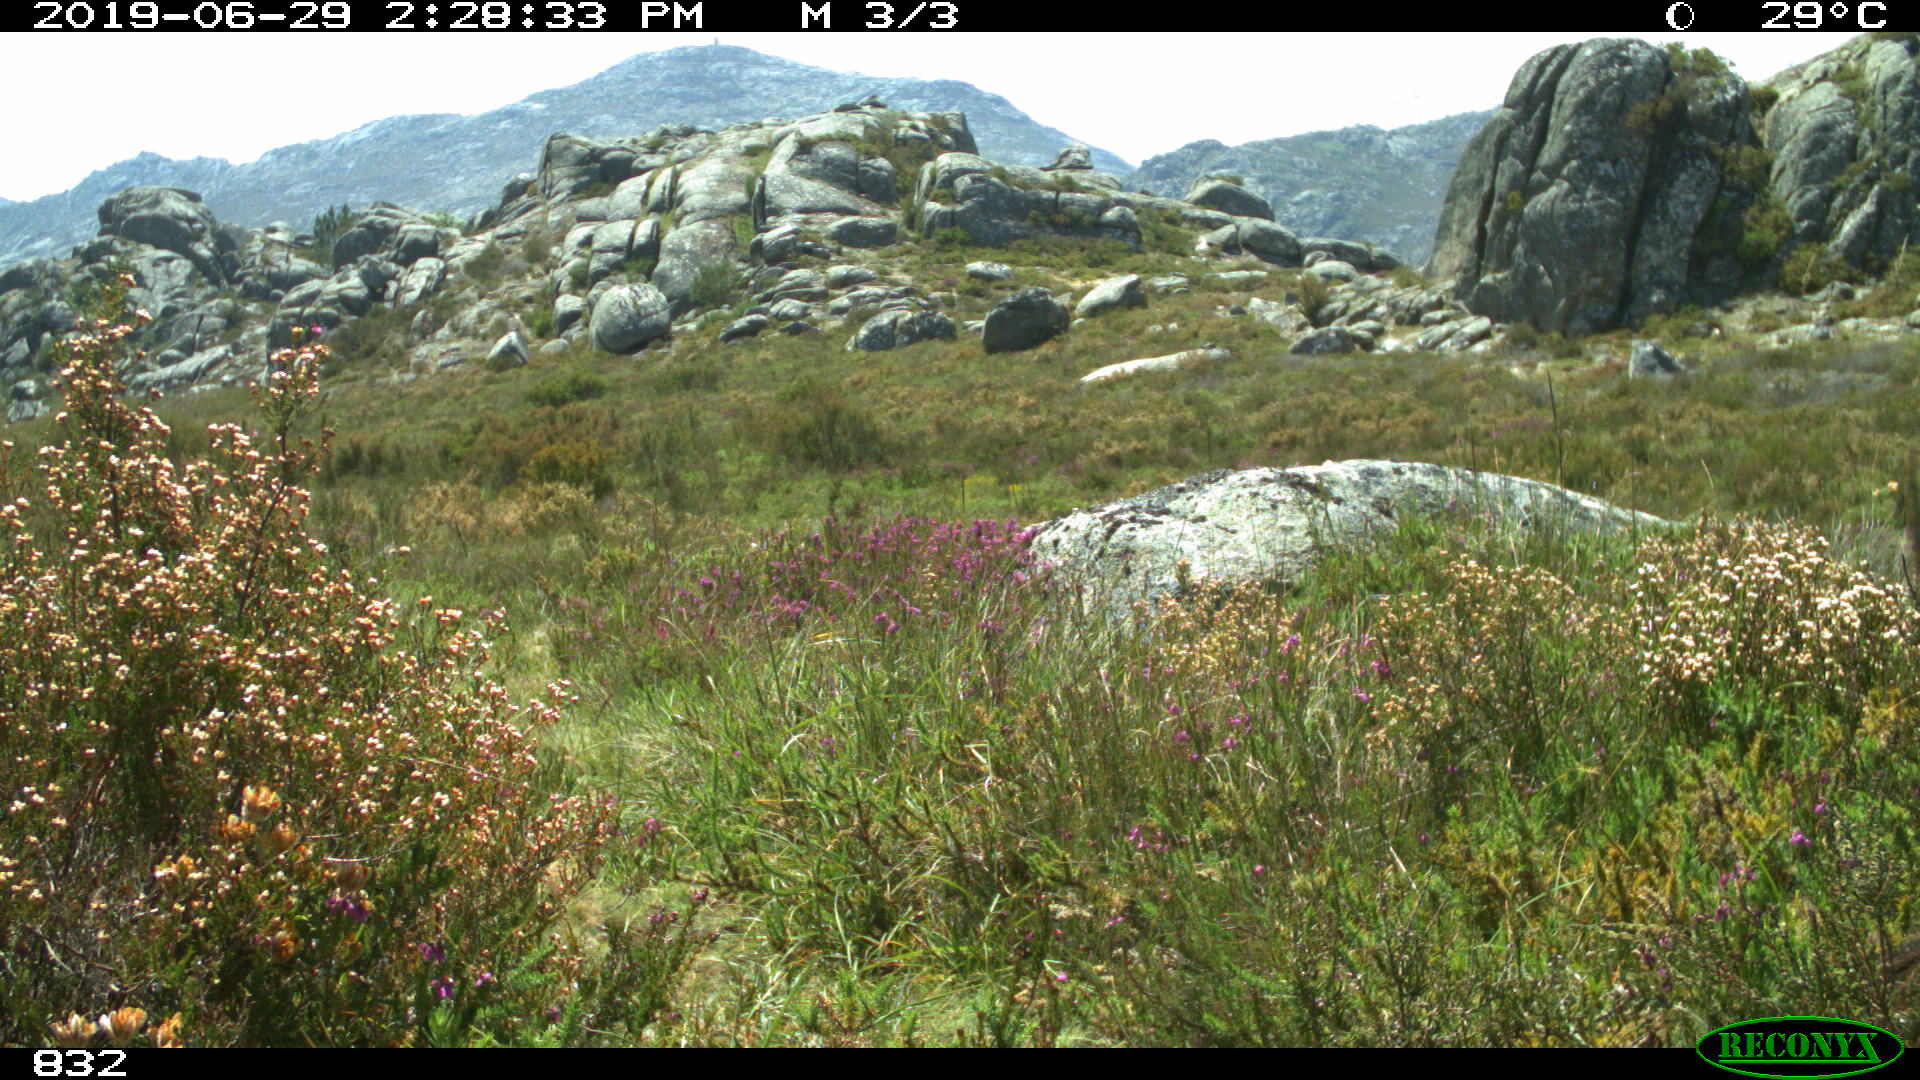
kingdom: Animalia
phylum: Chordata
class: Mammalia
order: Artiodactyla
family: Bovidae
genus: Bos
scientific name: Bos taurus
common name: Domesticated cattle
